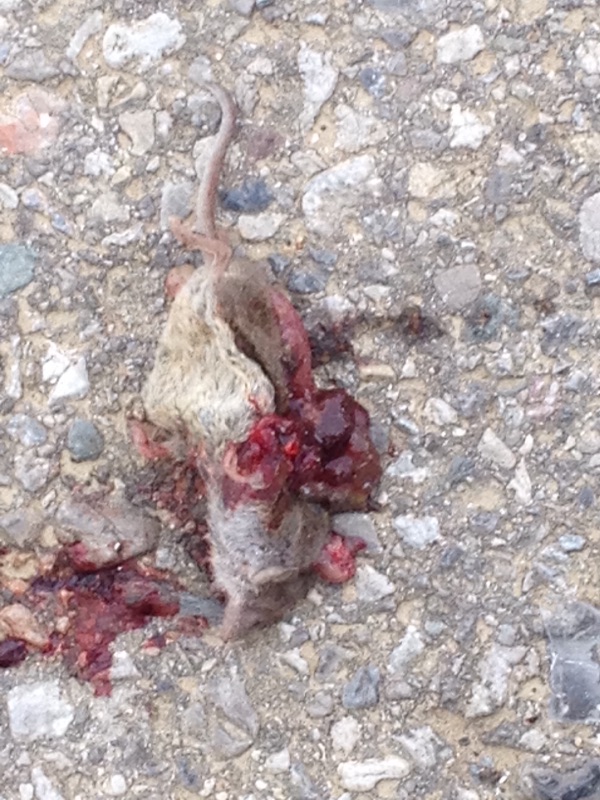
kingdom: Animalia
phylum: Chordata
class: Mammalia
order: Soricomorpha
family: Soricidae
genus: Crocidura
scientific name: Crocidura suaveolens
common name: Lesser white-toothed shrew
